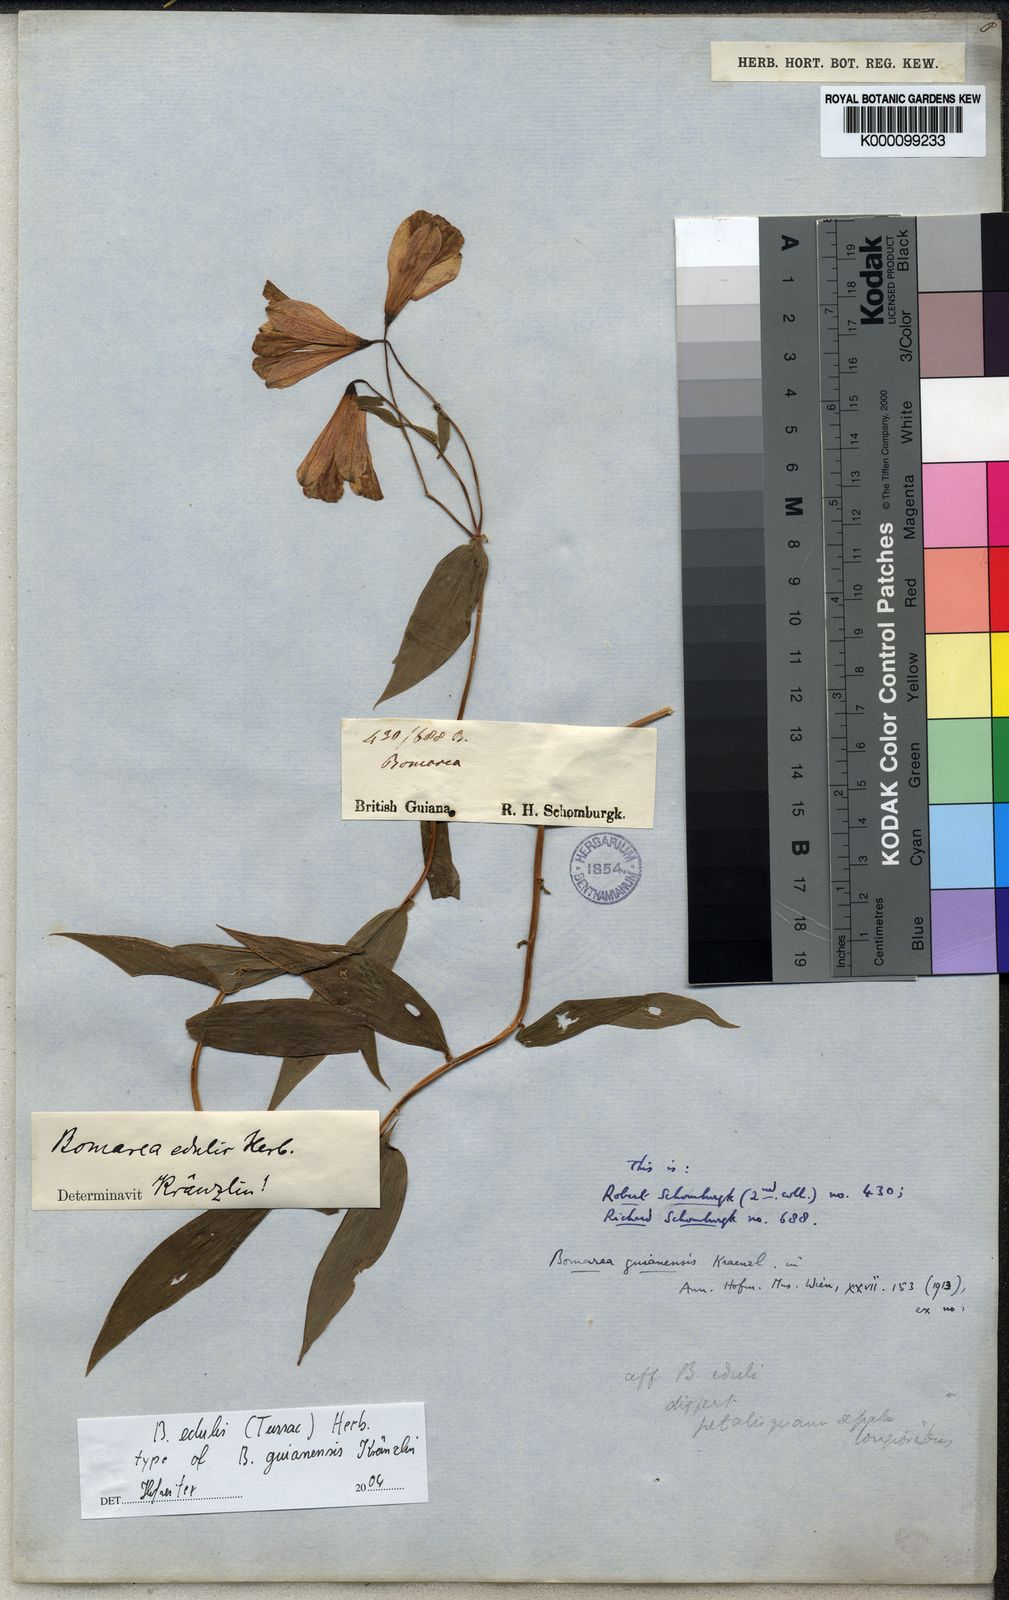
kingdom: Plantae
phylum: Tracheophyta
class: Liliopsida
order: Liliales
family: Alstroemeriaceae
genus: Bomarea
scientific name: Bomarea edulis
